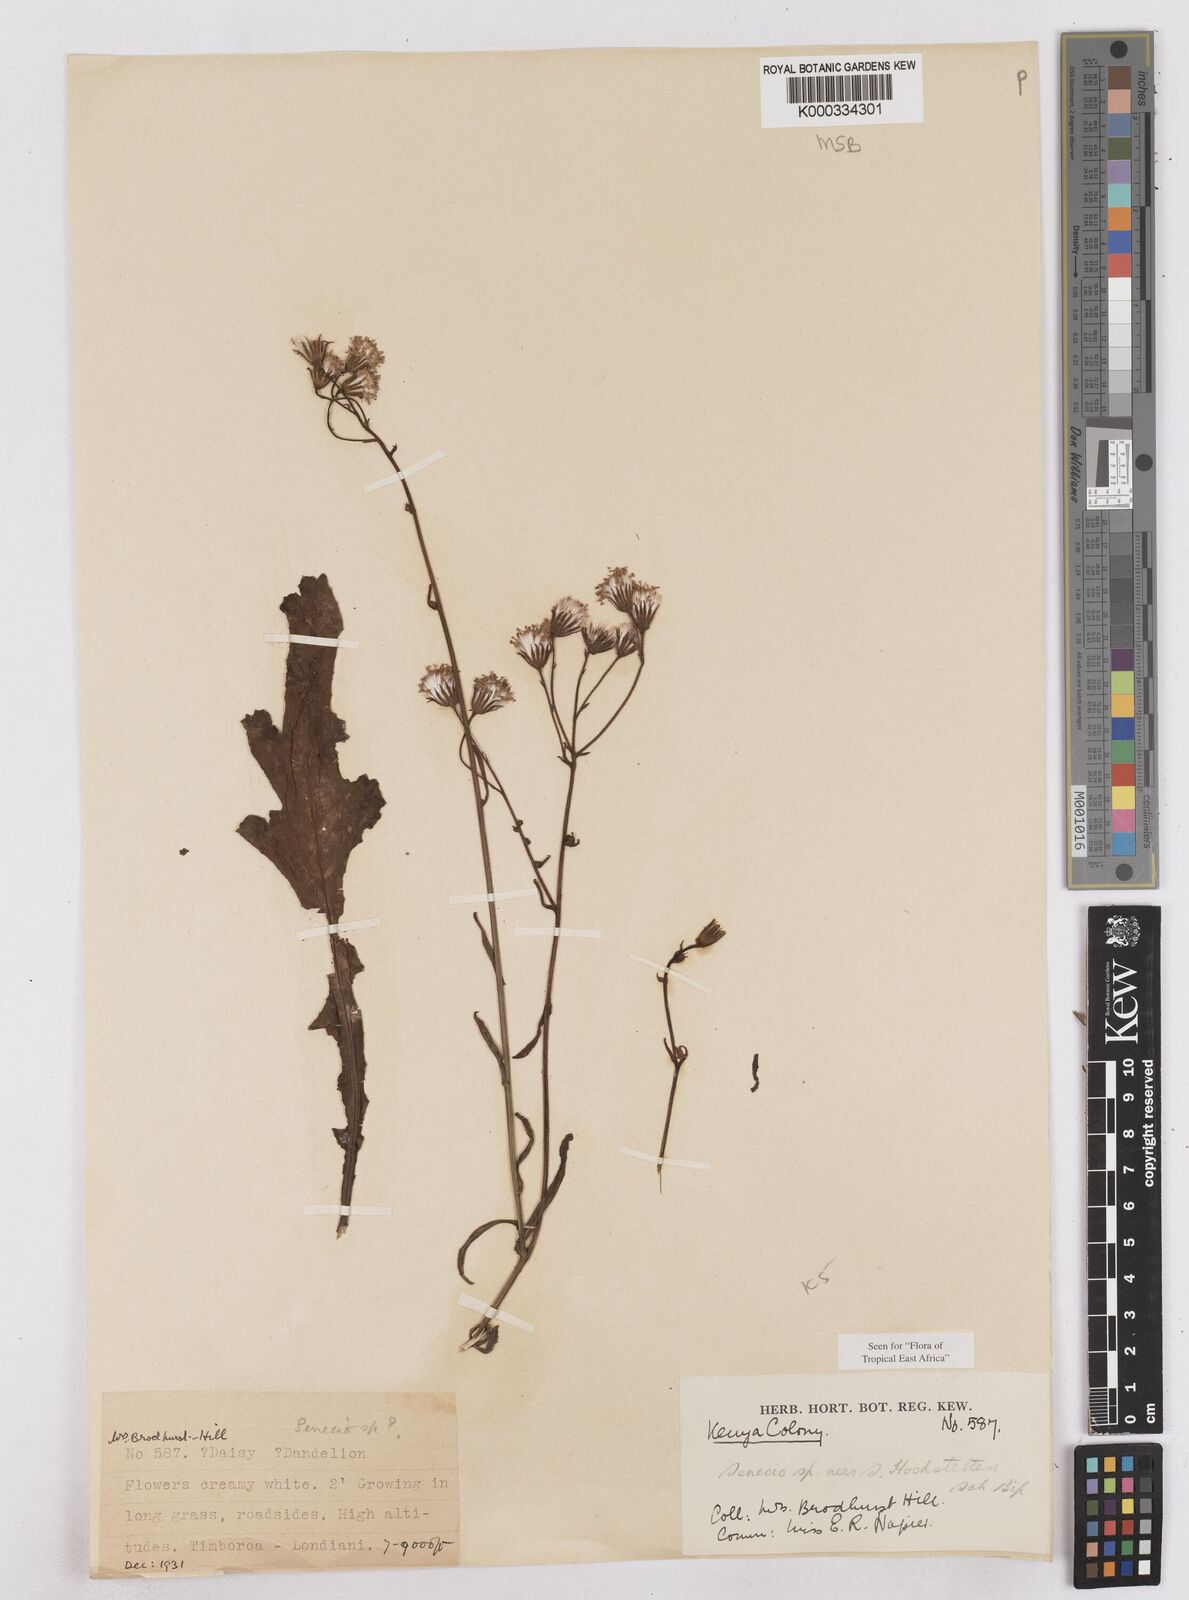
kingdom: Plantae
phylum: Tracheophyta
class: Magnoliopsida
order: Asterales
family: Asteraceae
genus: Senecio
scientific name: Senecio hochstetteri
